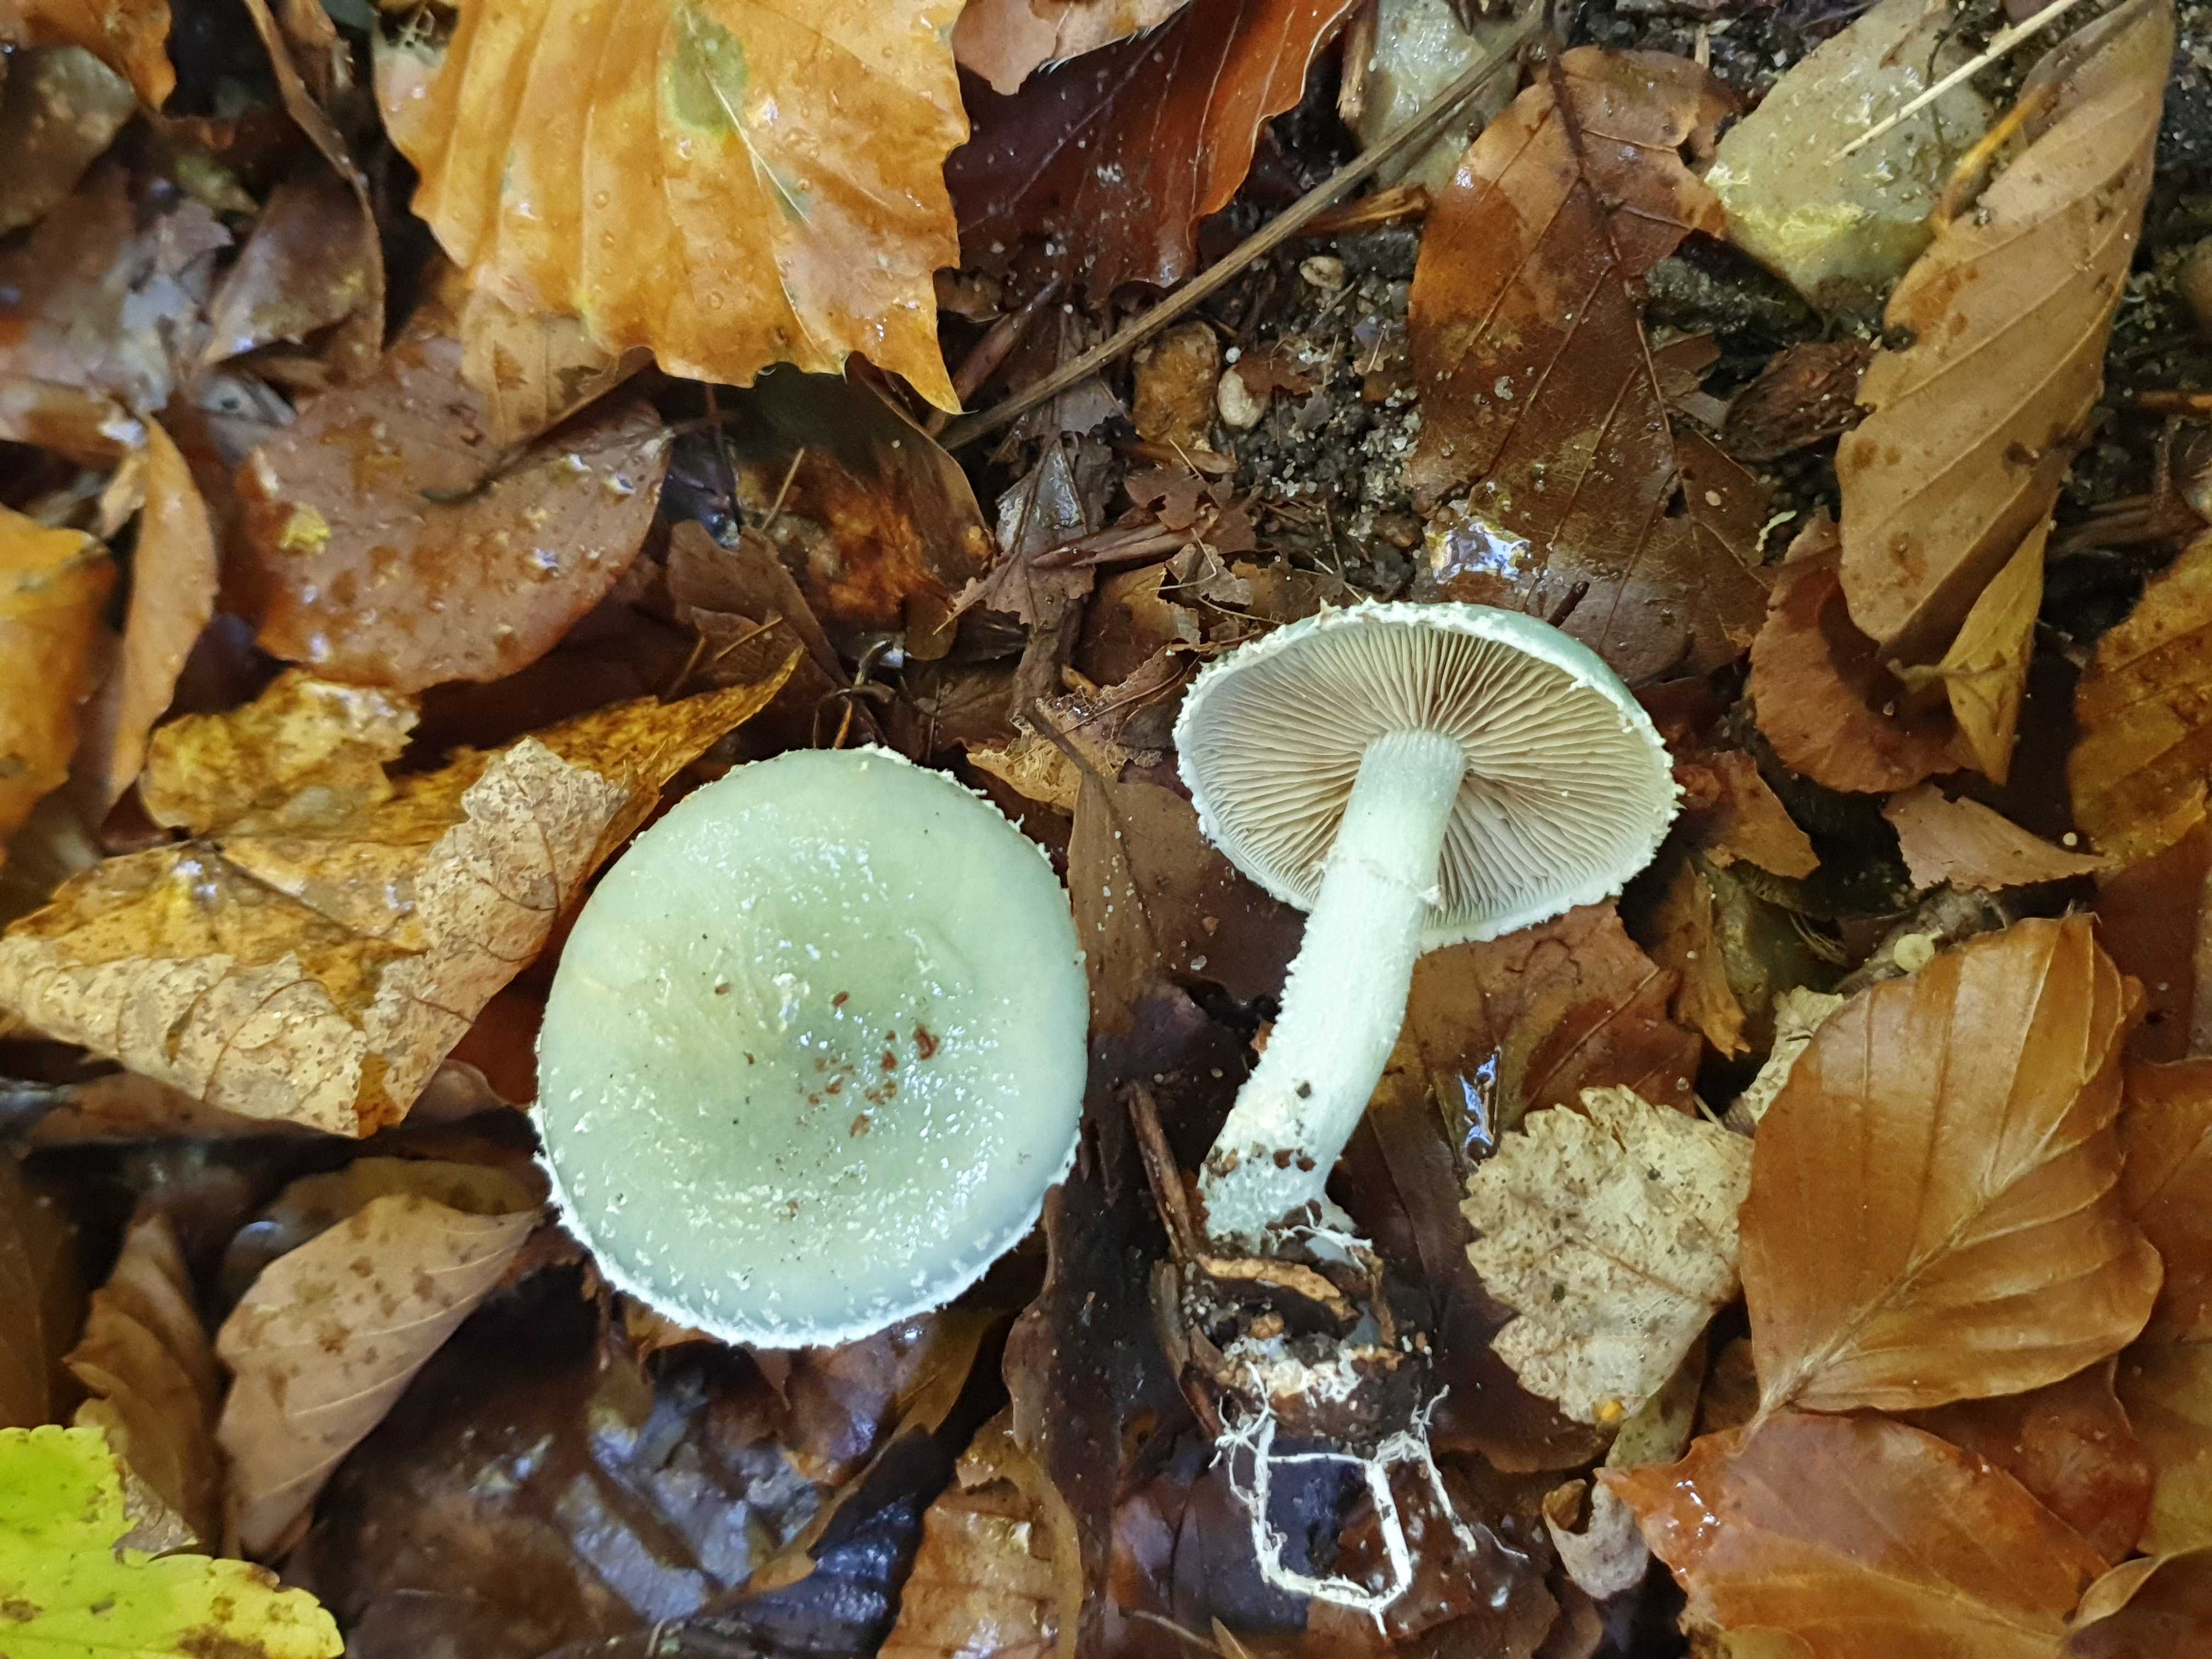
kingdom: Fungi
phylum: Basidiomycota
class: Agaricomycetes
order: Agaricales
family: Strophariaceae
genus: Stropharia
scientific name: Stropharia cyanea
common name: blågrøn bredblad
